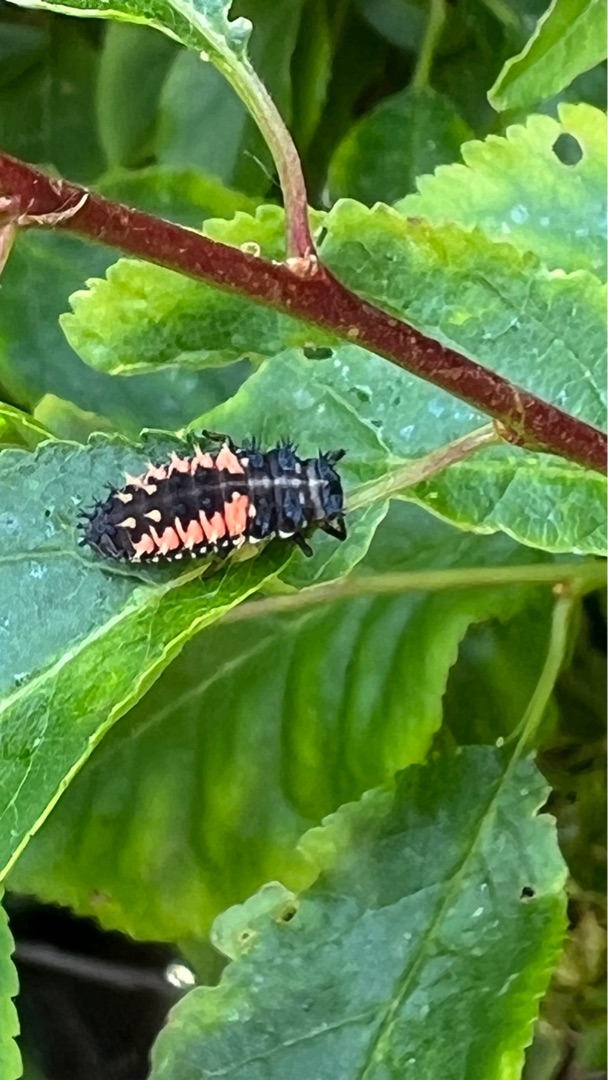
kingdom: Animalia
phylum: Arthropoda
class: Insecta
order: Coleoptera
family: Coccinellidae
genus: Harmonia
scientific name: Harmonia axyridis
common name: Harlekinmariehøne
